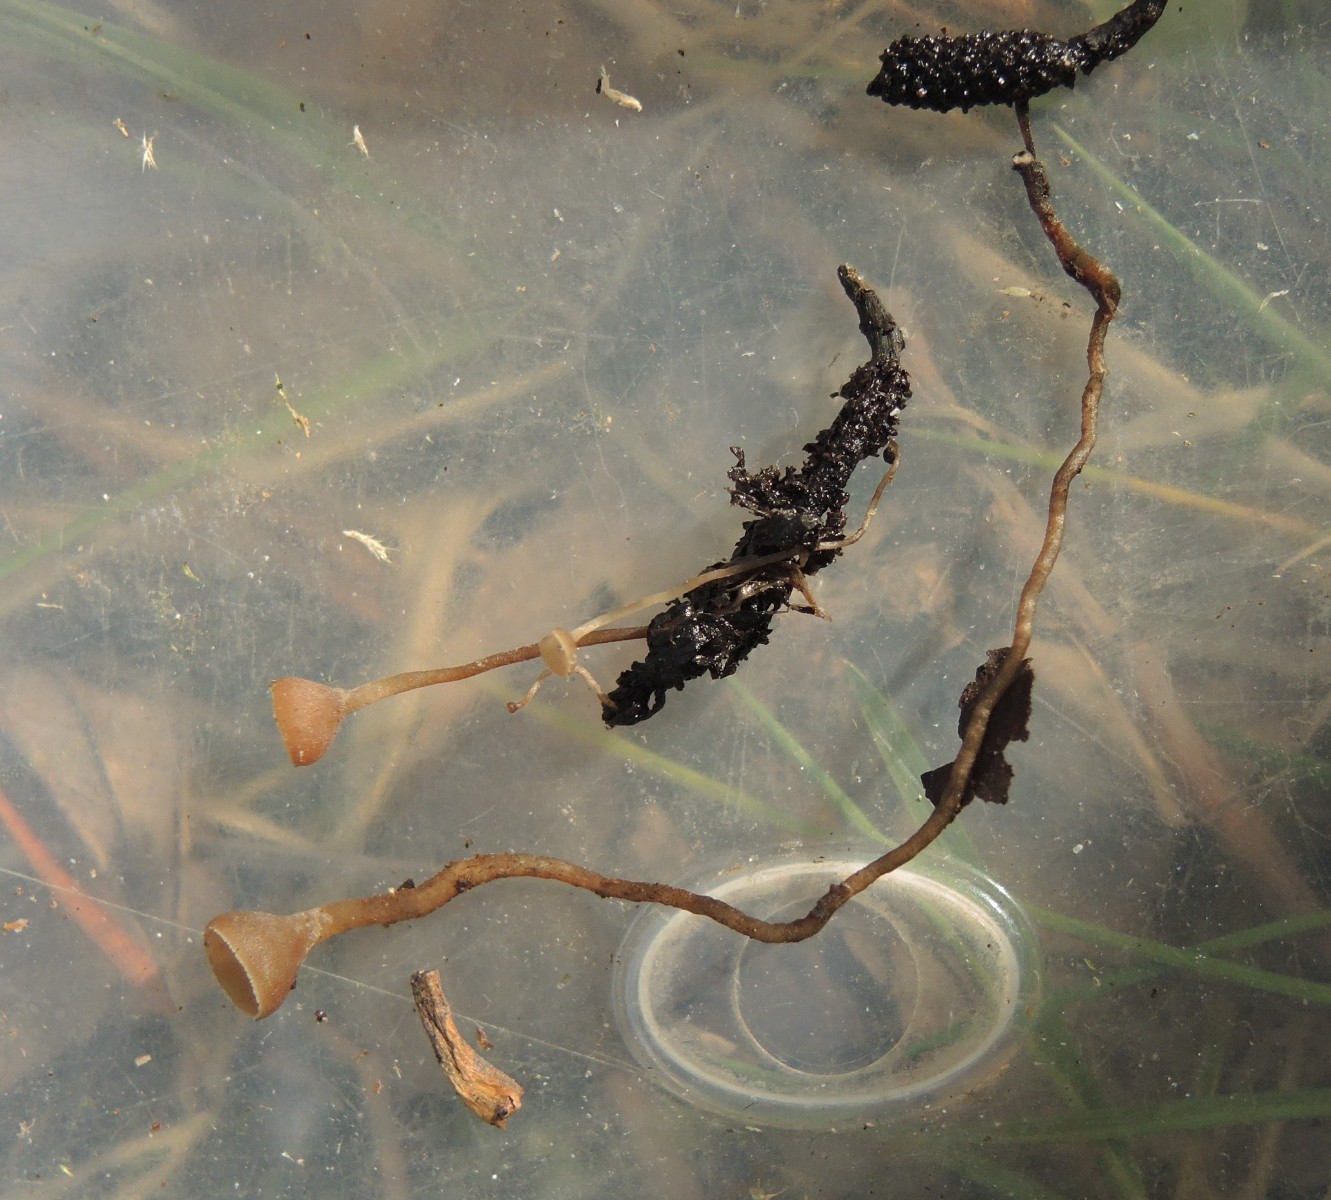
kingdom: Fungi
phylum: Ascomycota
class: Leotiomycetes
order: Helotiales
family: Sclerotiniaceae
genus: Ciboria
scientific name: Ciboria caucus
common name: rakle-knoldskive
